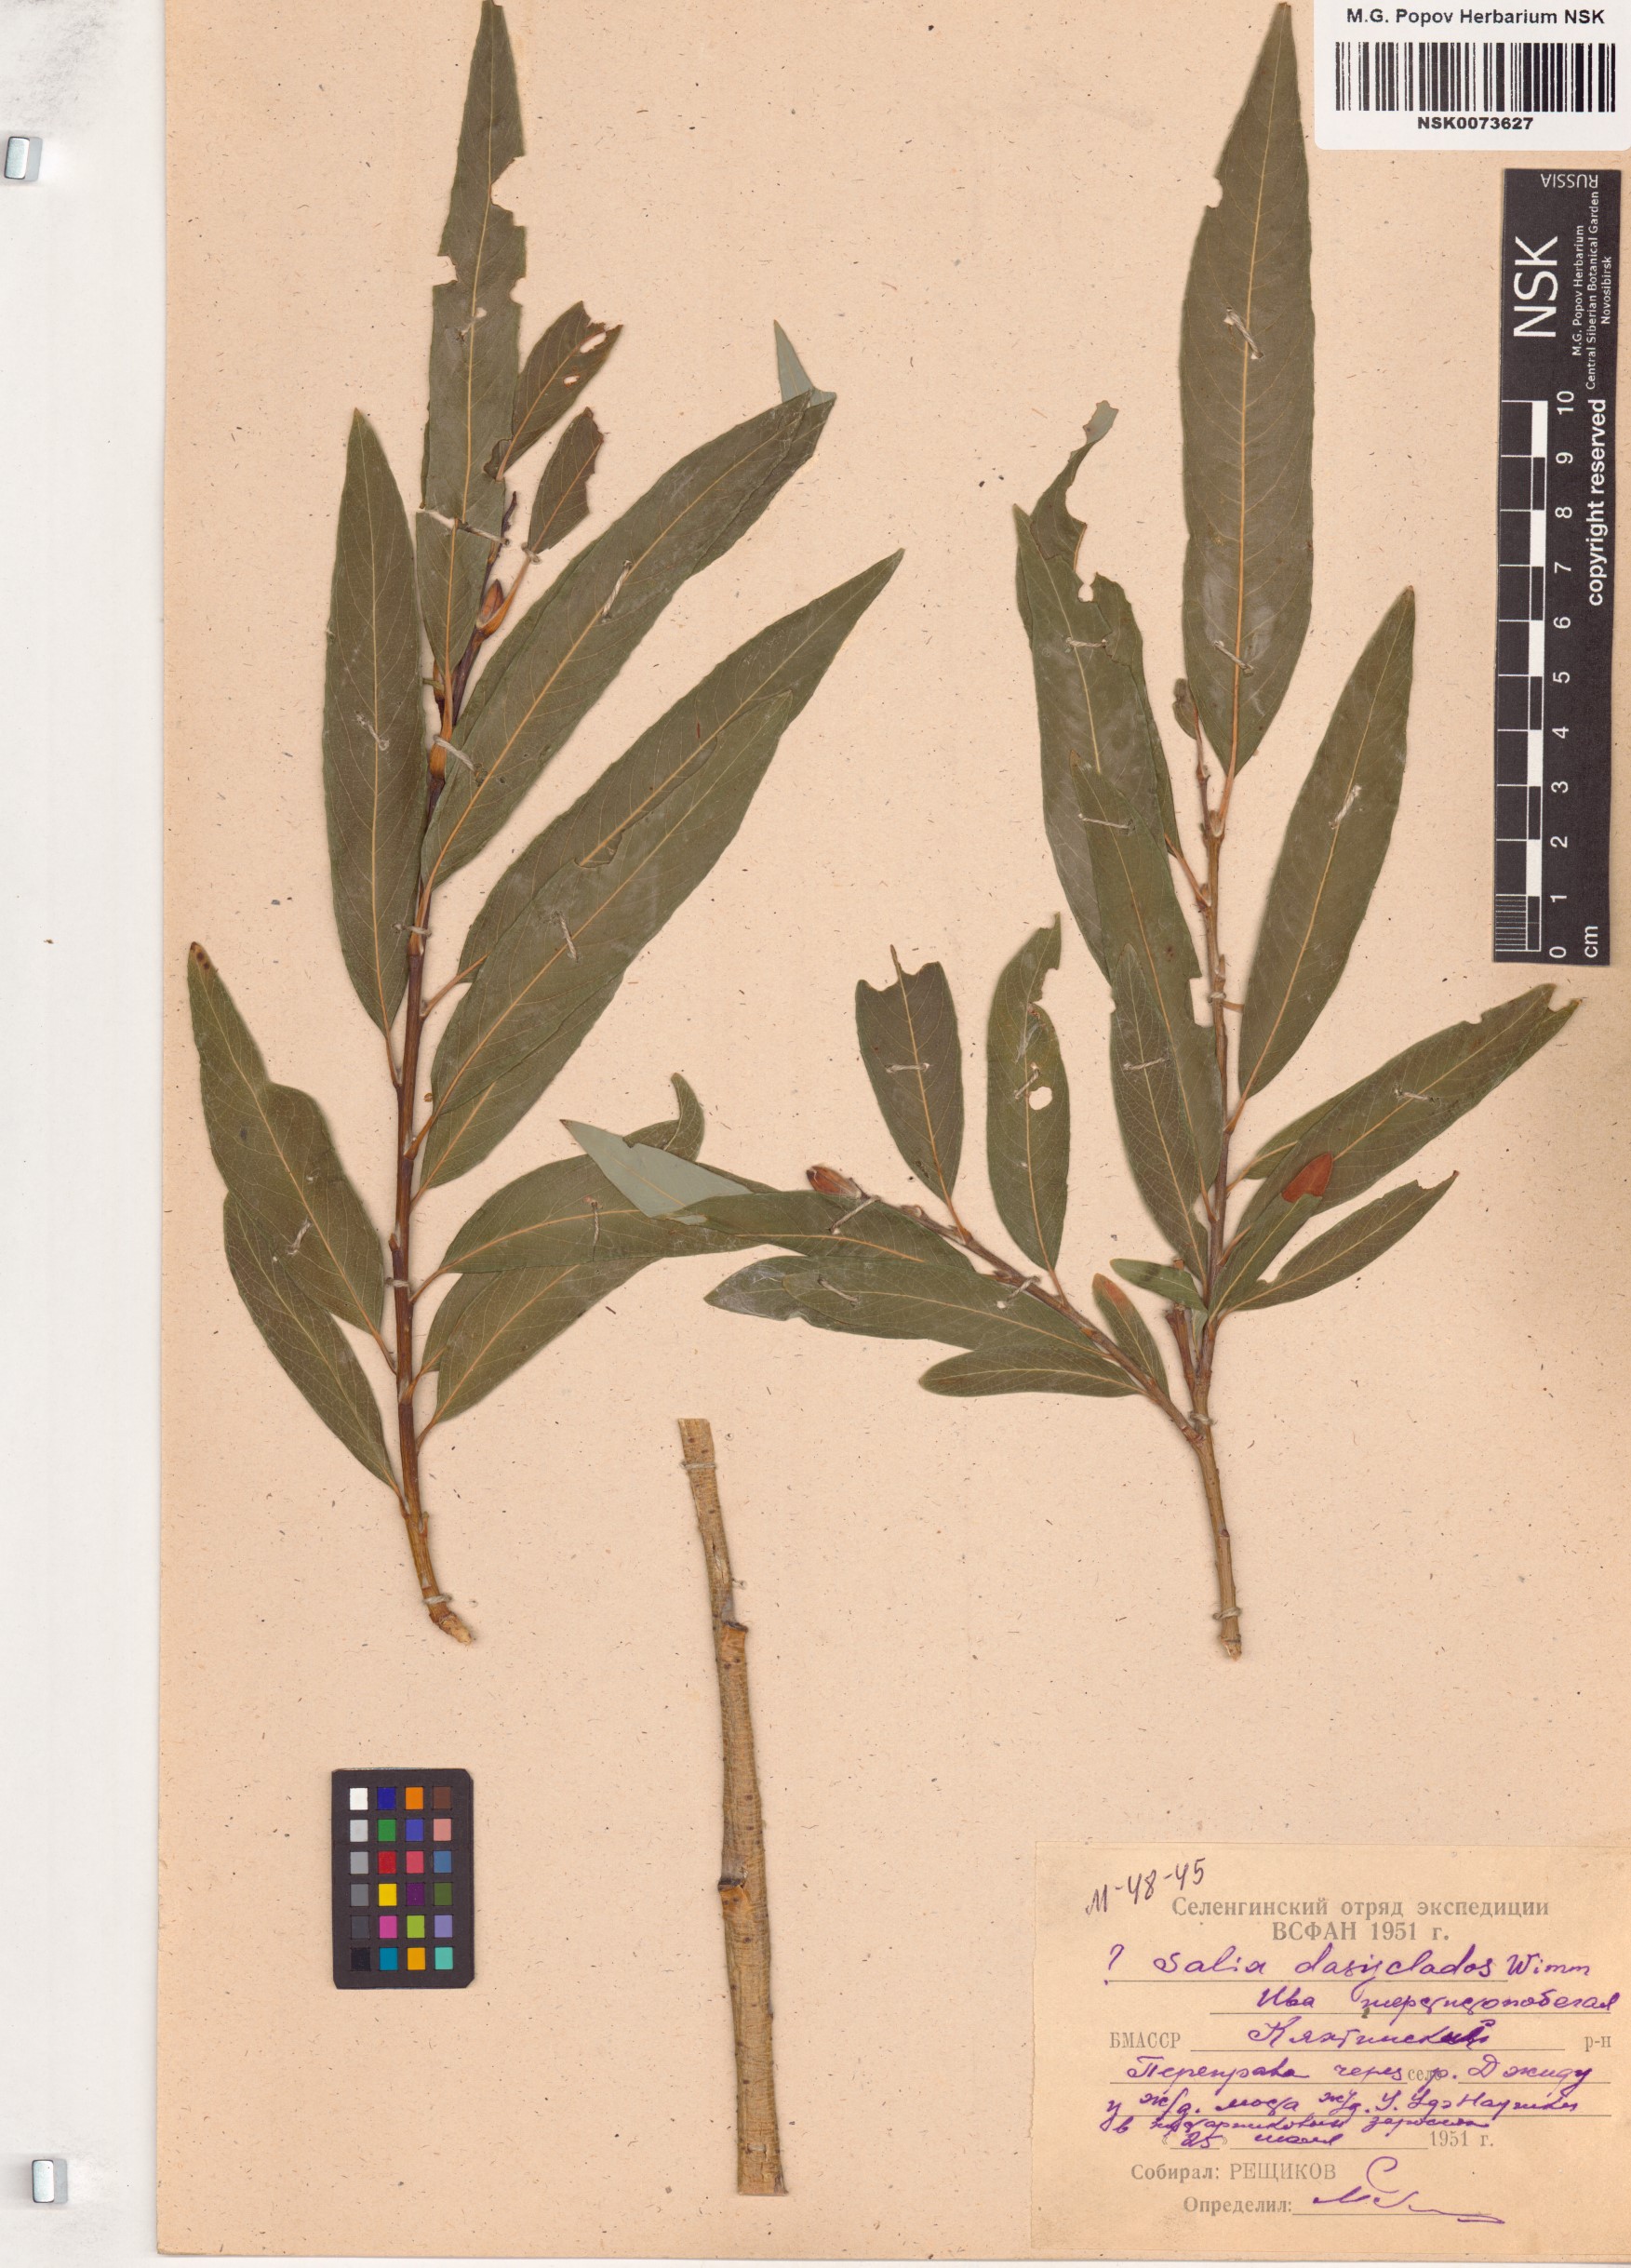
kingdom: Plantae
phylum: Tracheophyta
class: Magnoliopsida
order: Malpighiales
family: Salicaceae
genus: Salix
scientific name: Salix gmelinii
